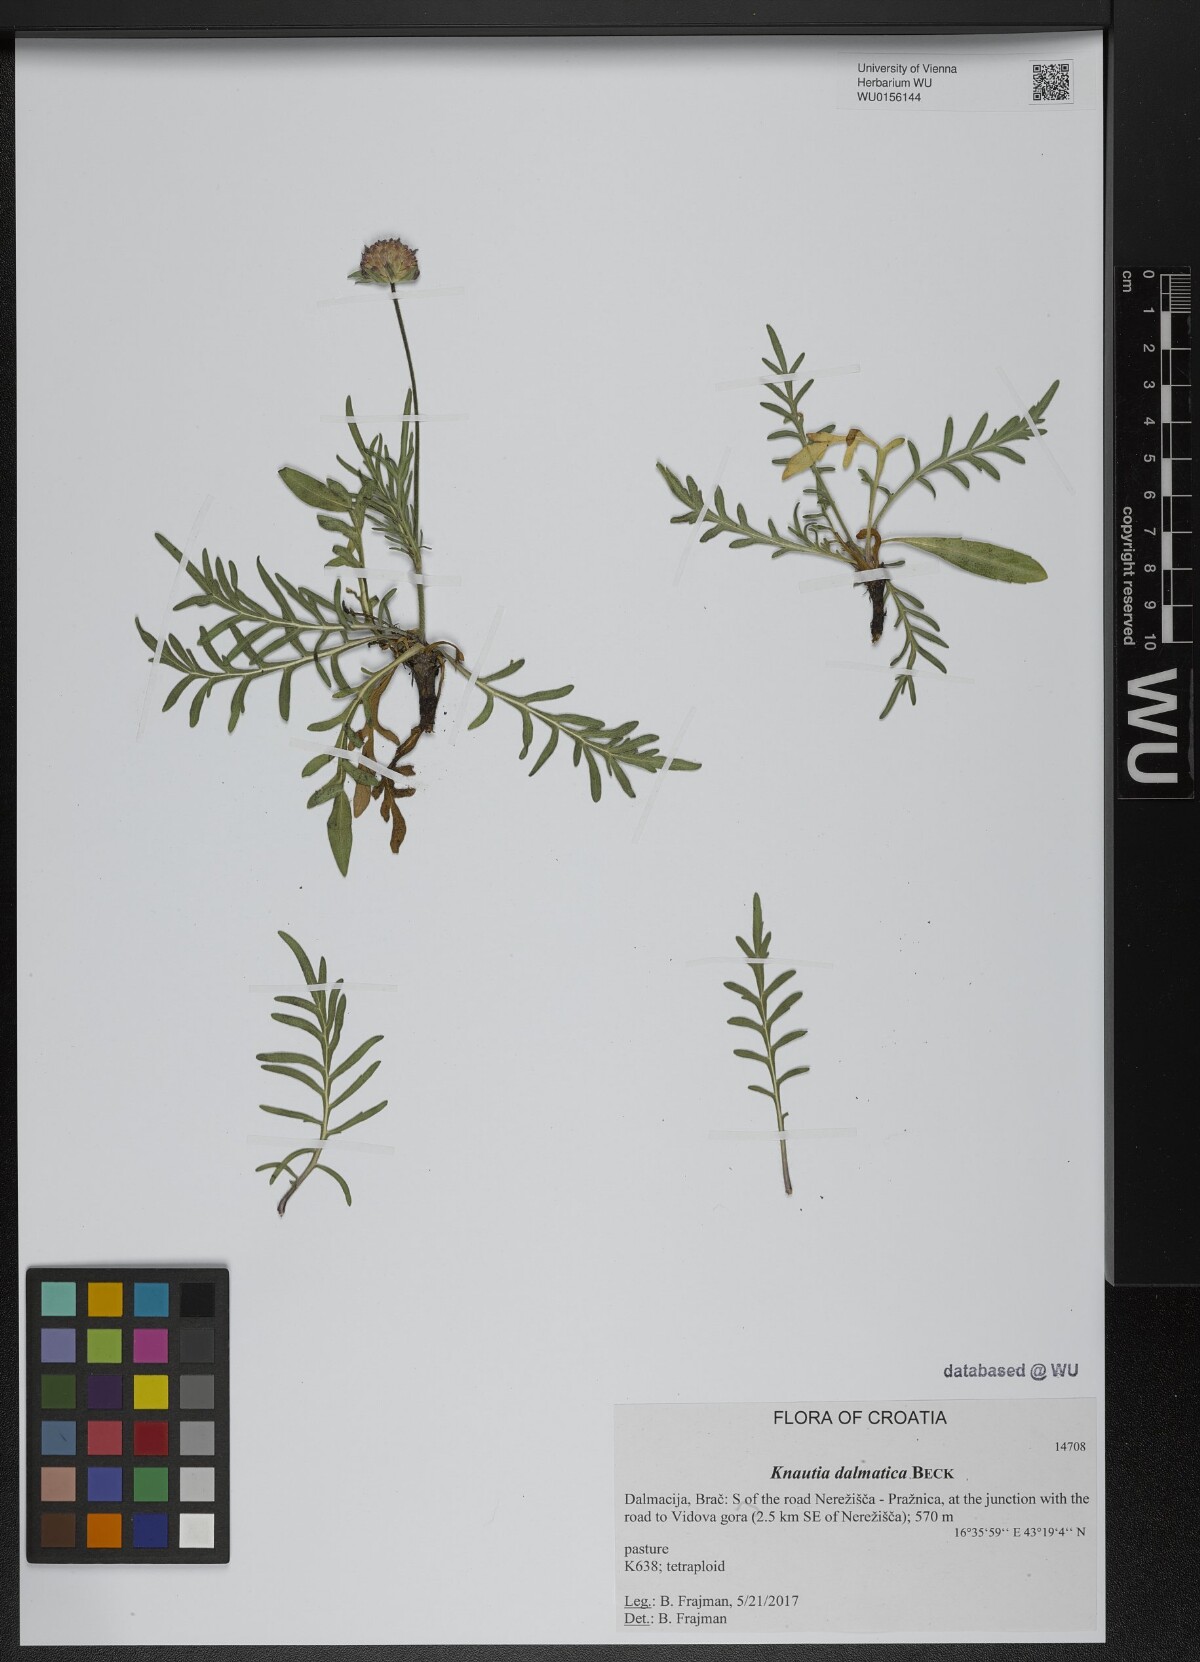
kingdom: Plantae
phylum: Tracheophyta
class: Magnoliopsida
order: Dipsacales
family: Caprifoliaceae
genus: Knautia
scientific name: Knautia dalmatica
